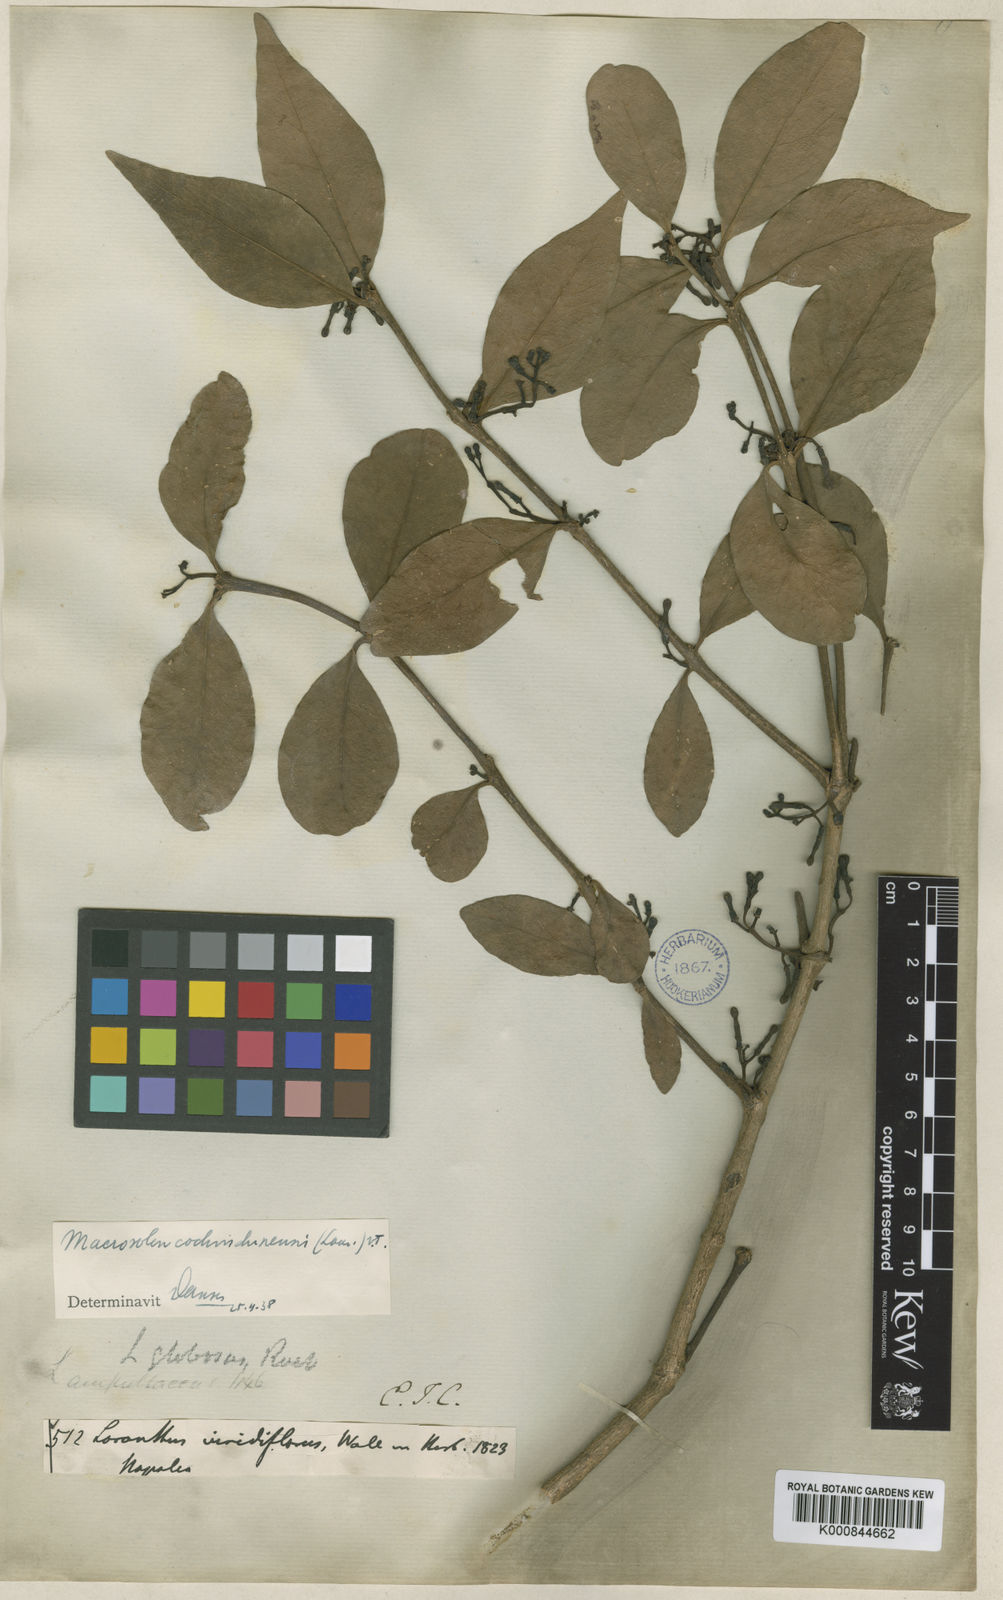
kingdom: Plantae
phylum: Tracheophyta
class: Magnoliopsida
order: Santalales
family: Loranthaceae
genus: Macrosolen
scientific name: Macrosolen globosus
